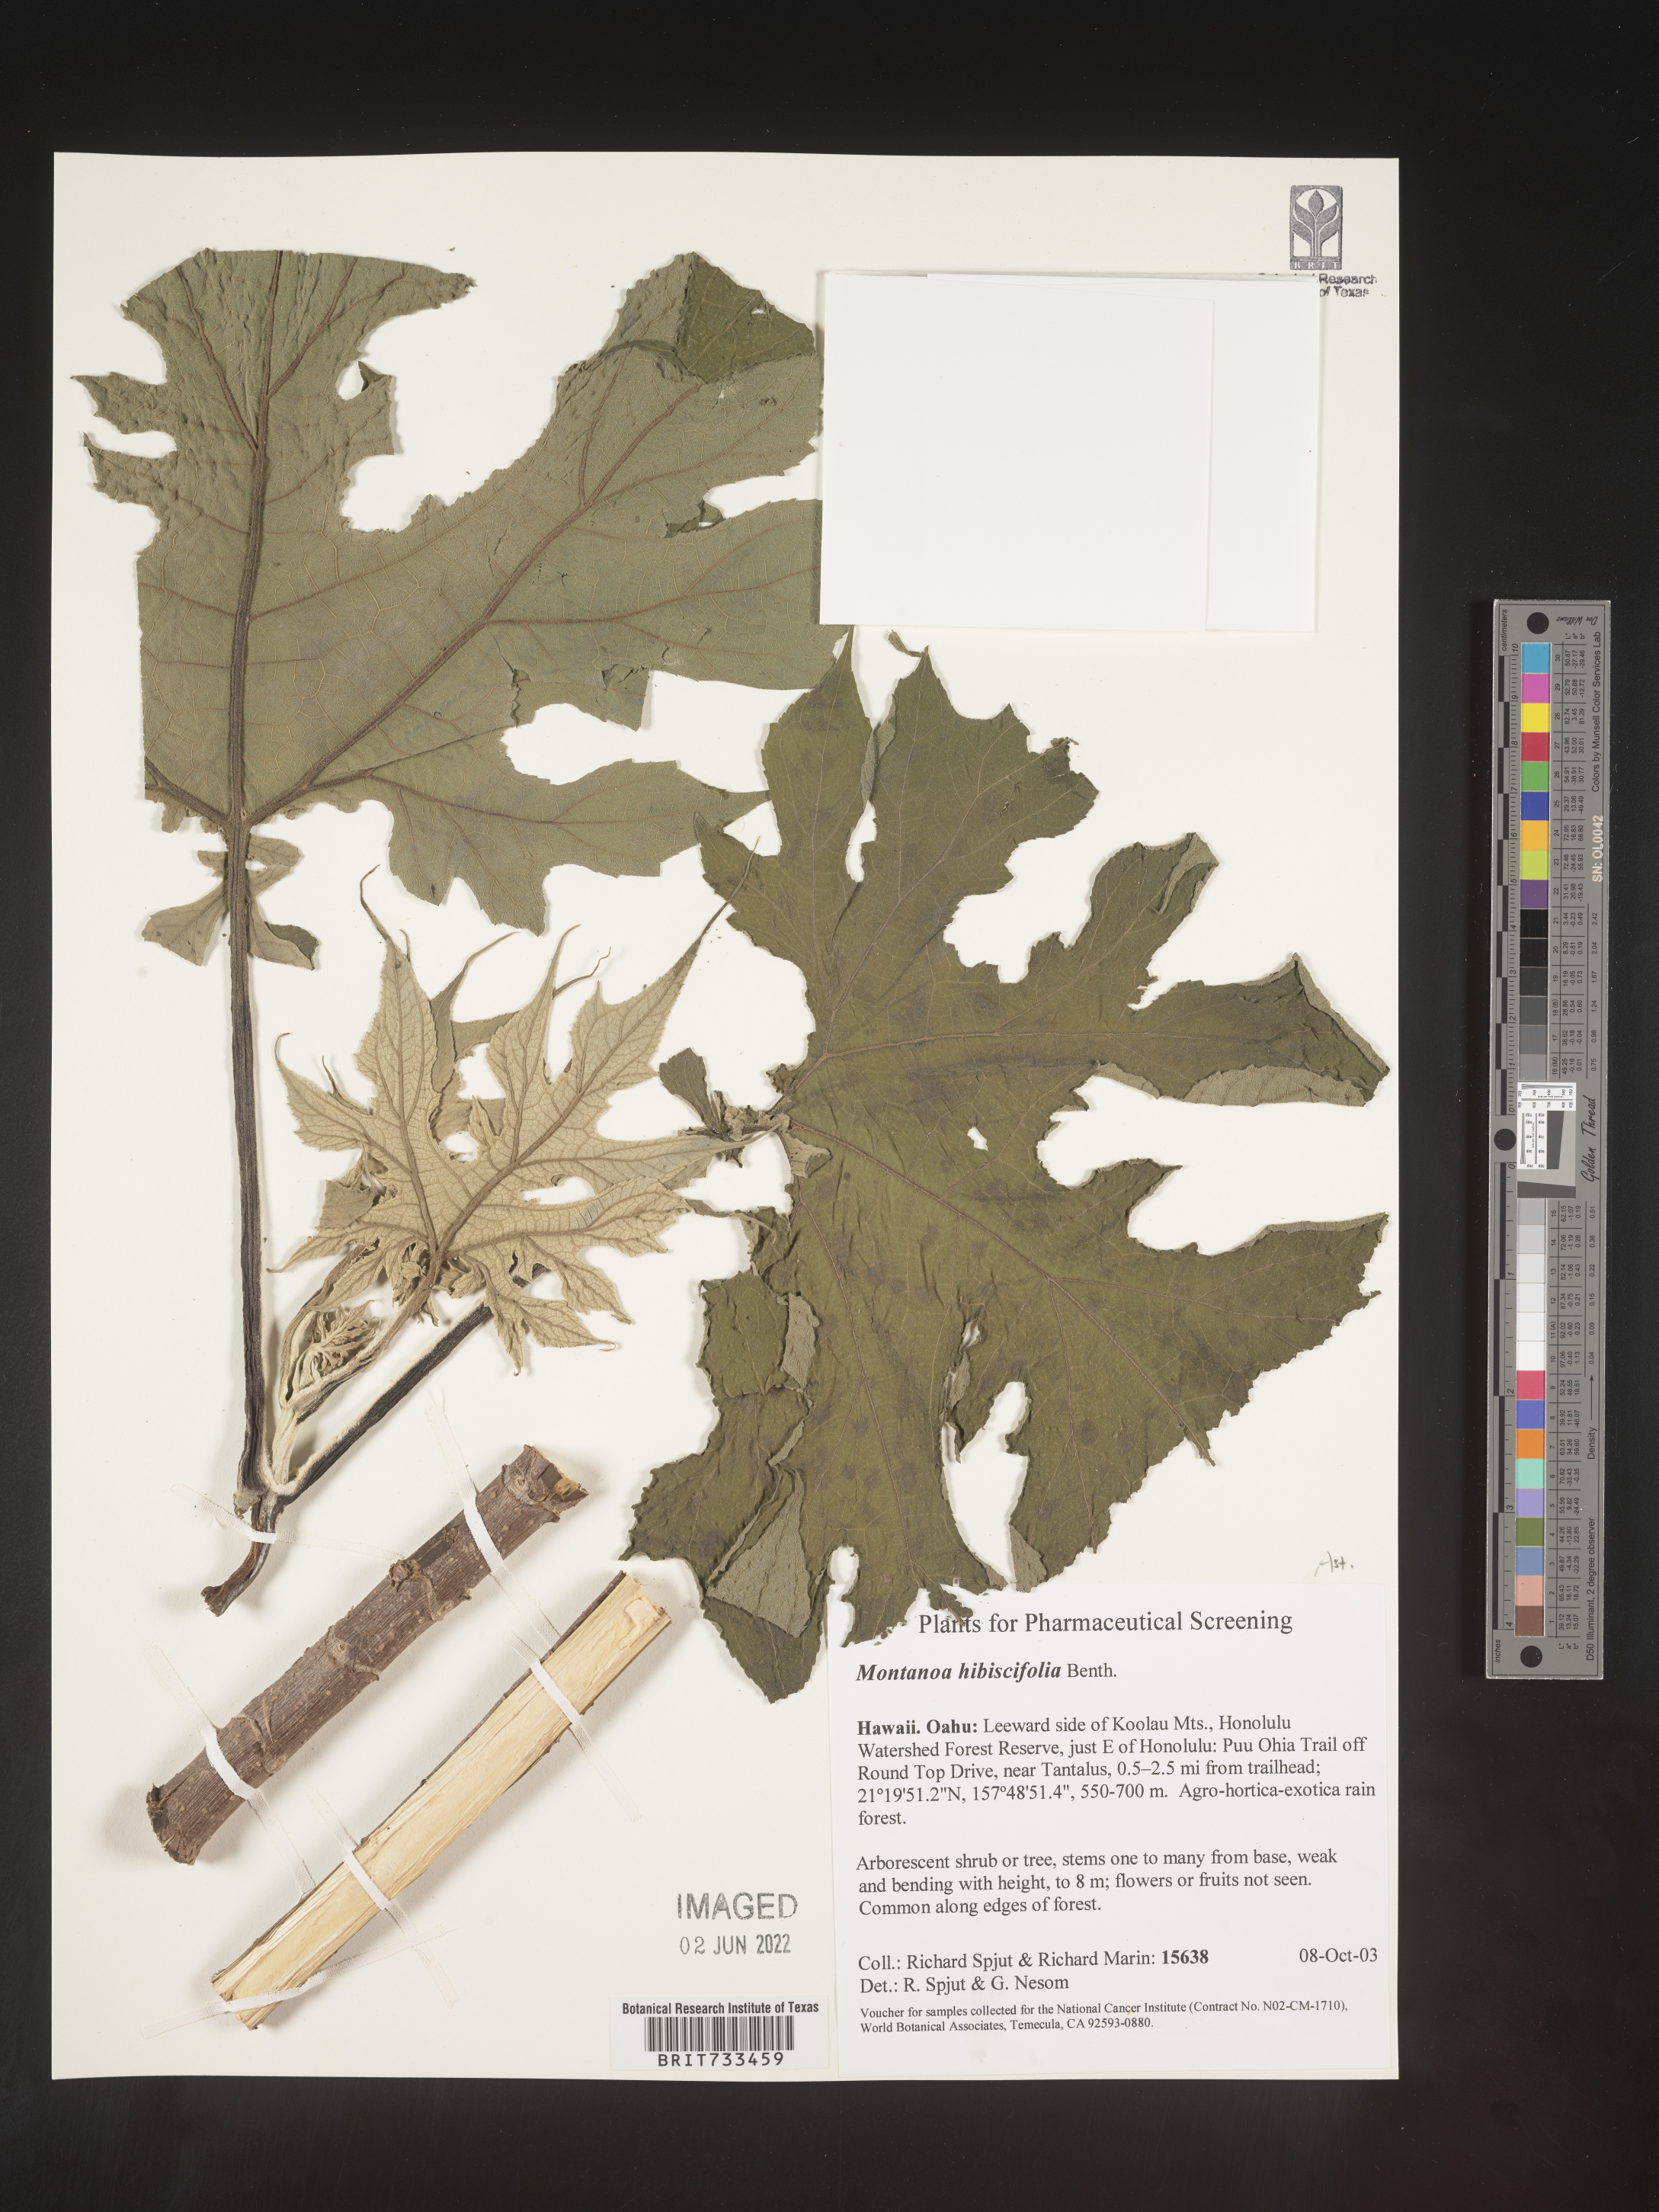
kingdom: Plantae
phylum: Tracheophyta
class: Magnoliopsida
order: Asterales
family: Asteraceae
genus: Montanoa
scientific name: Montanoa hibiscifolia
